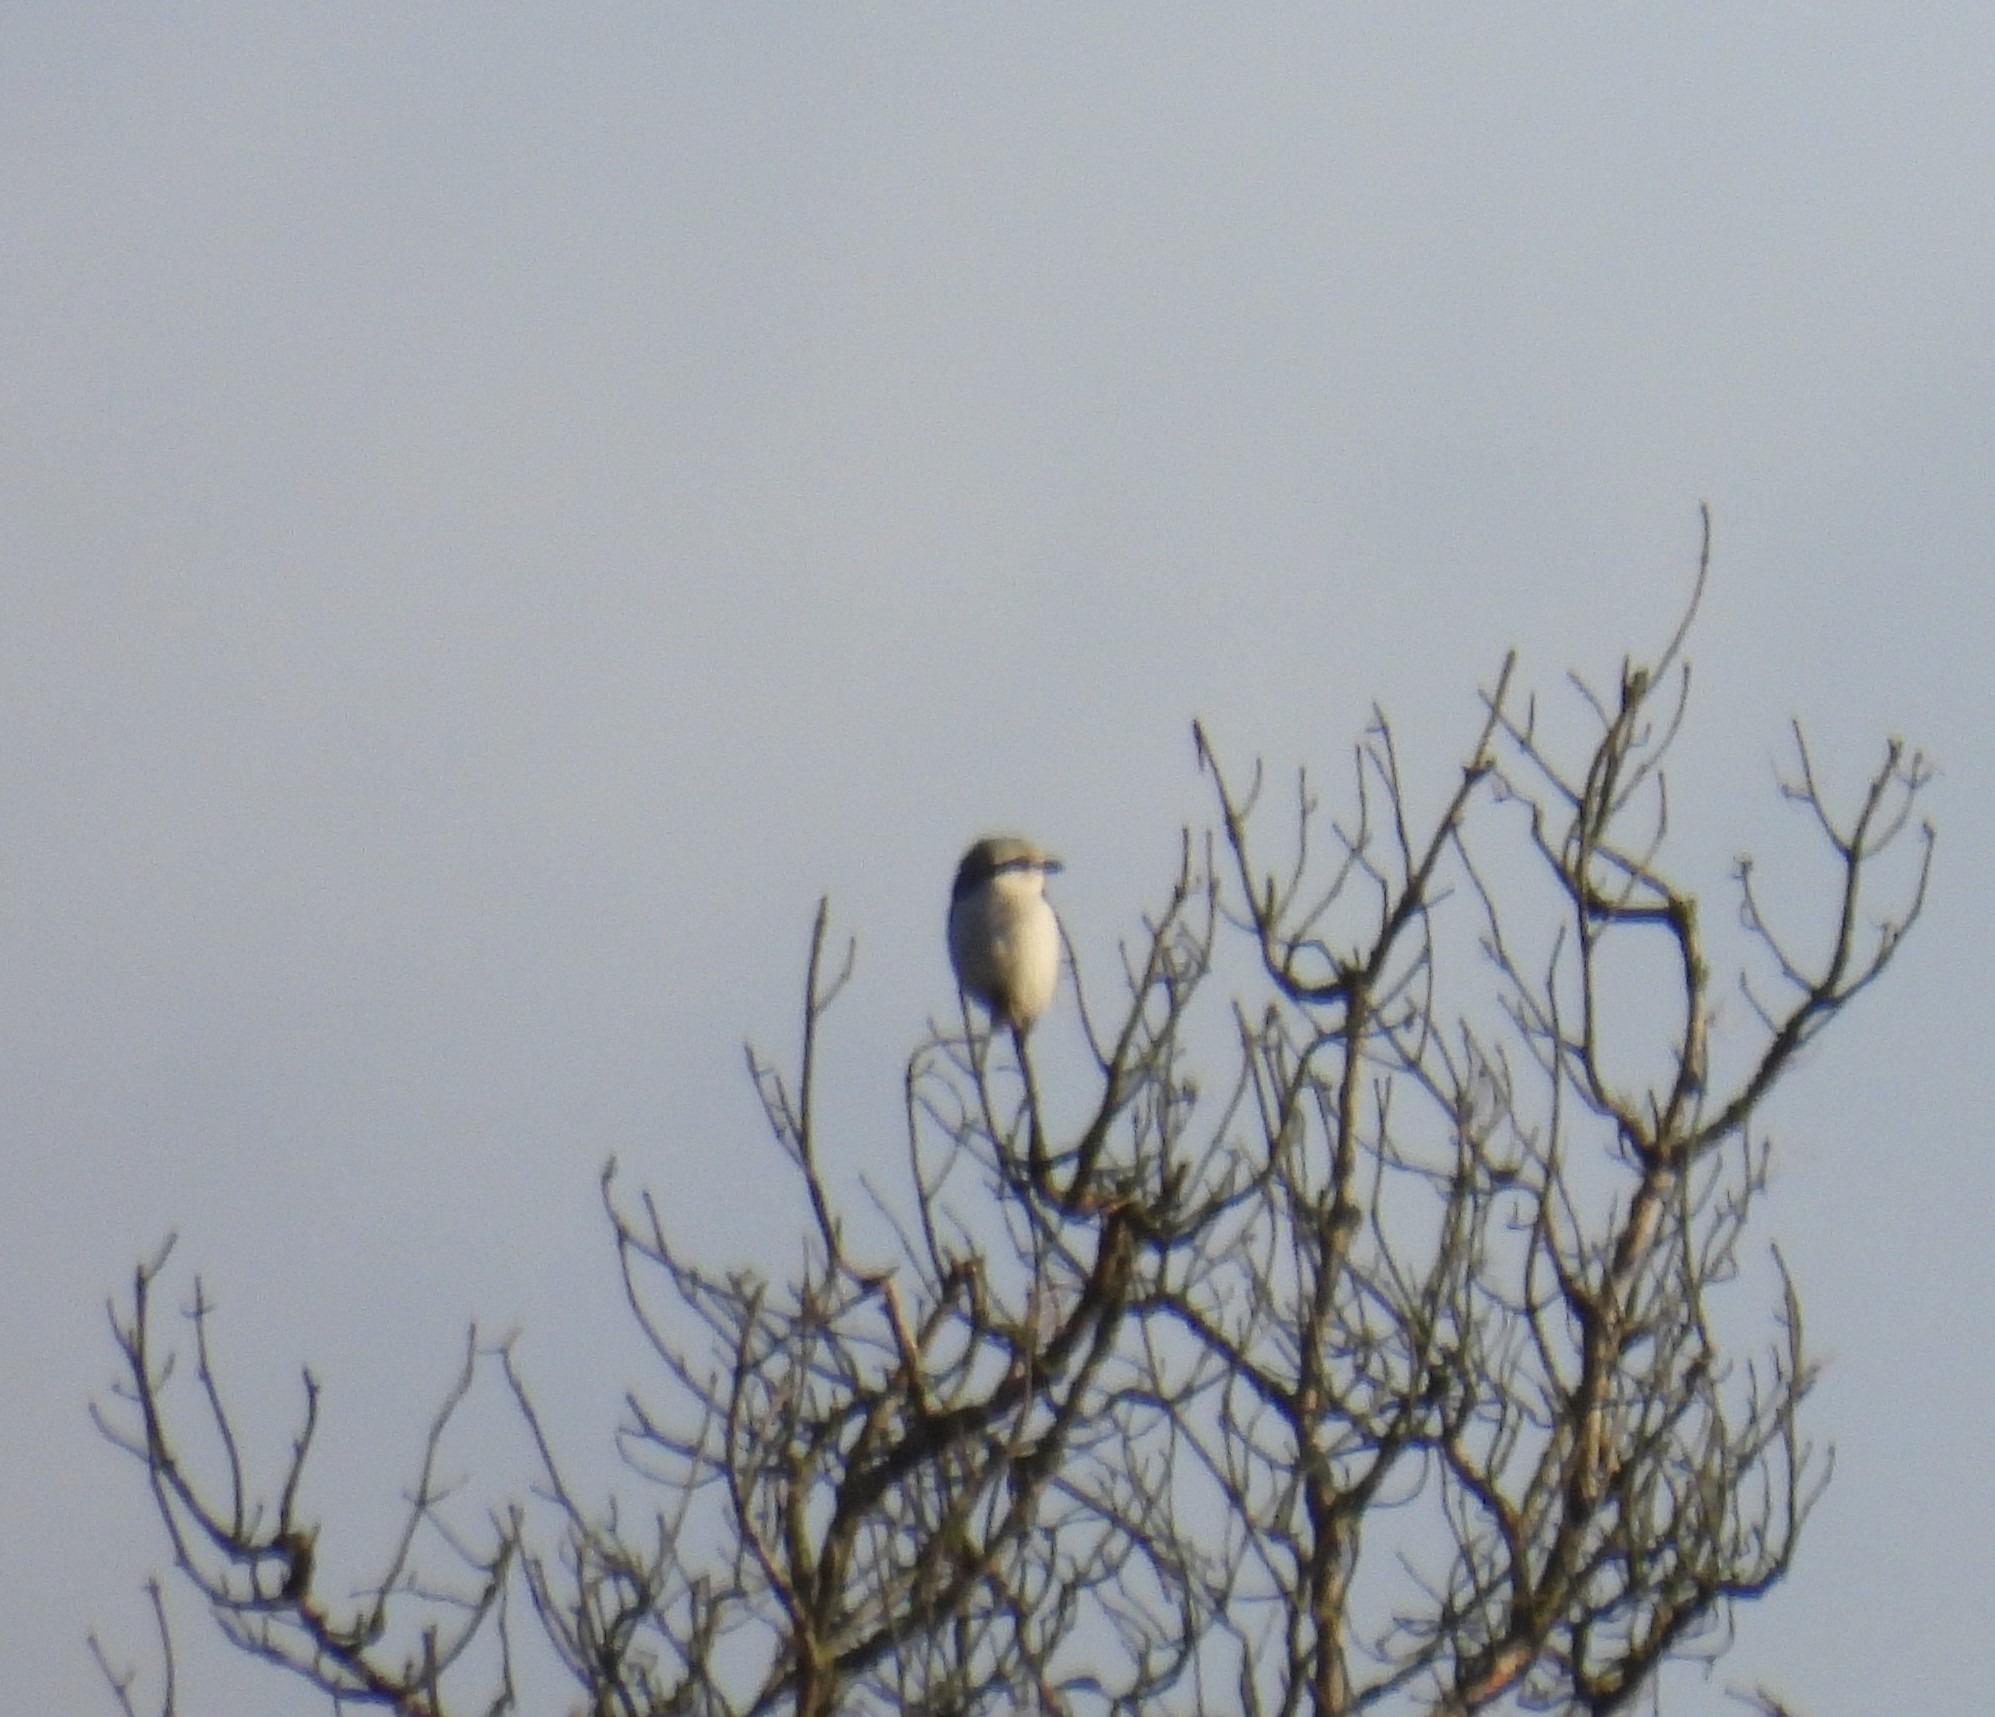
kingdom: Animalia
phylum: Chordata
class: Aves
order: Passeriformes
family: Laniidae
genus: Lanius
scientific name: Lanius excubitor
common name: Stor tornskade
